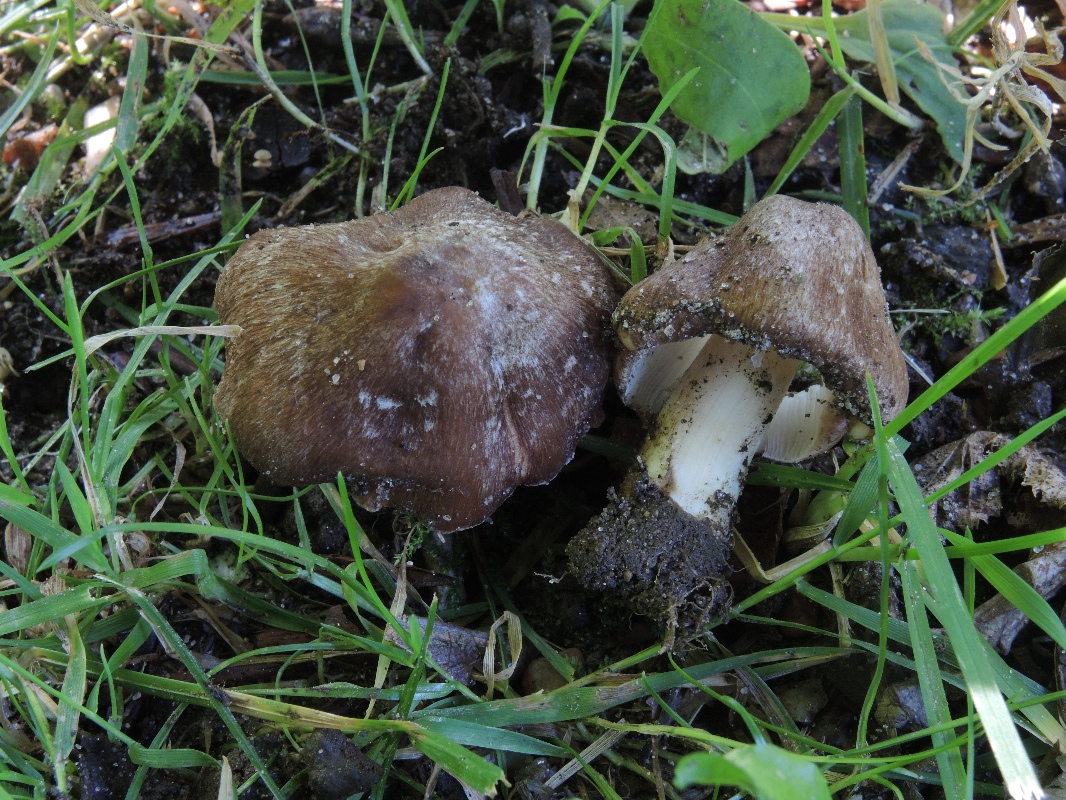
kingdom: Fungi
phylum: Basidiomycota
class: Agaricomycetes
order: Agaricales
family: Inocybaceae
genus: Inosperma
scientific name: Inosperma
